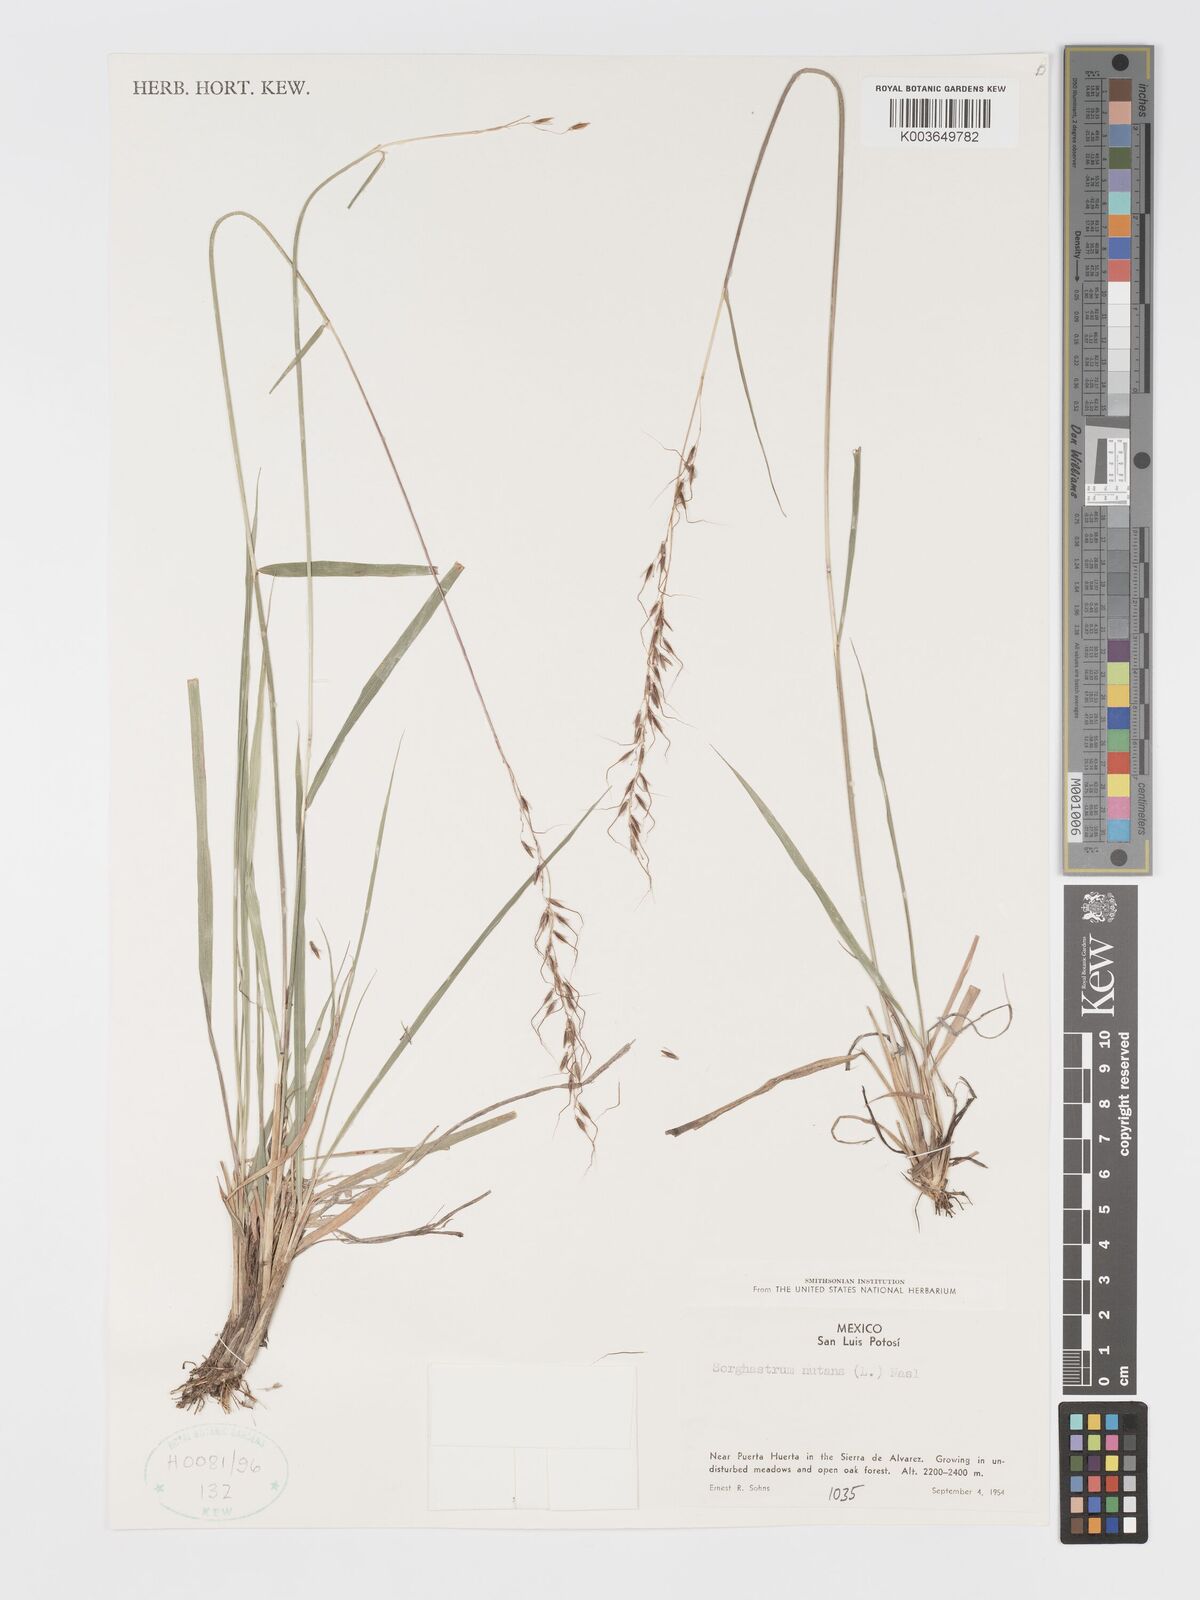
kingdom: Plantae
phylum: Tracheophyta
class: Liliopsida
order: Poales
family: Poaceae
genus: Sorghastrum
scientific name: Sorghastrum nutans
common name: Indian grass
